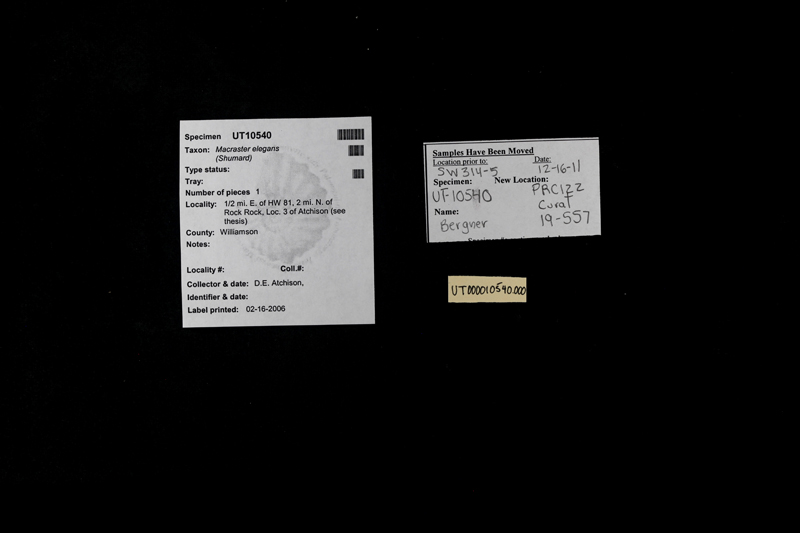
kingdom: Animalia
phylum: Echinodermata
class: Echinoidea
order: Spatangoida
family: Toxasteridae
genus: Macraster
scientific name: Macraster elegans
